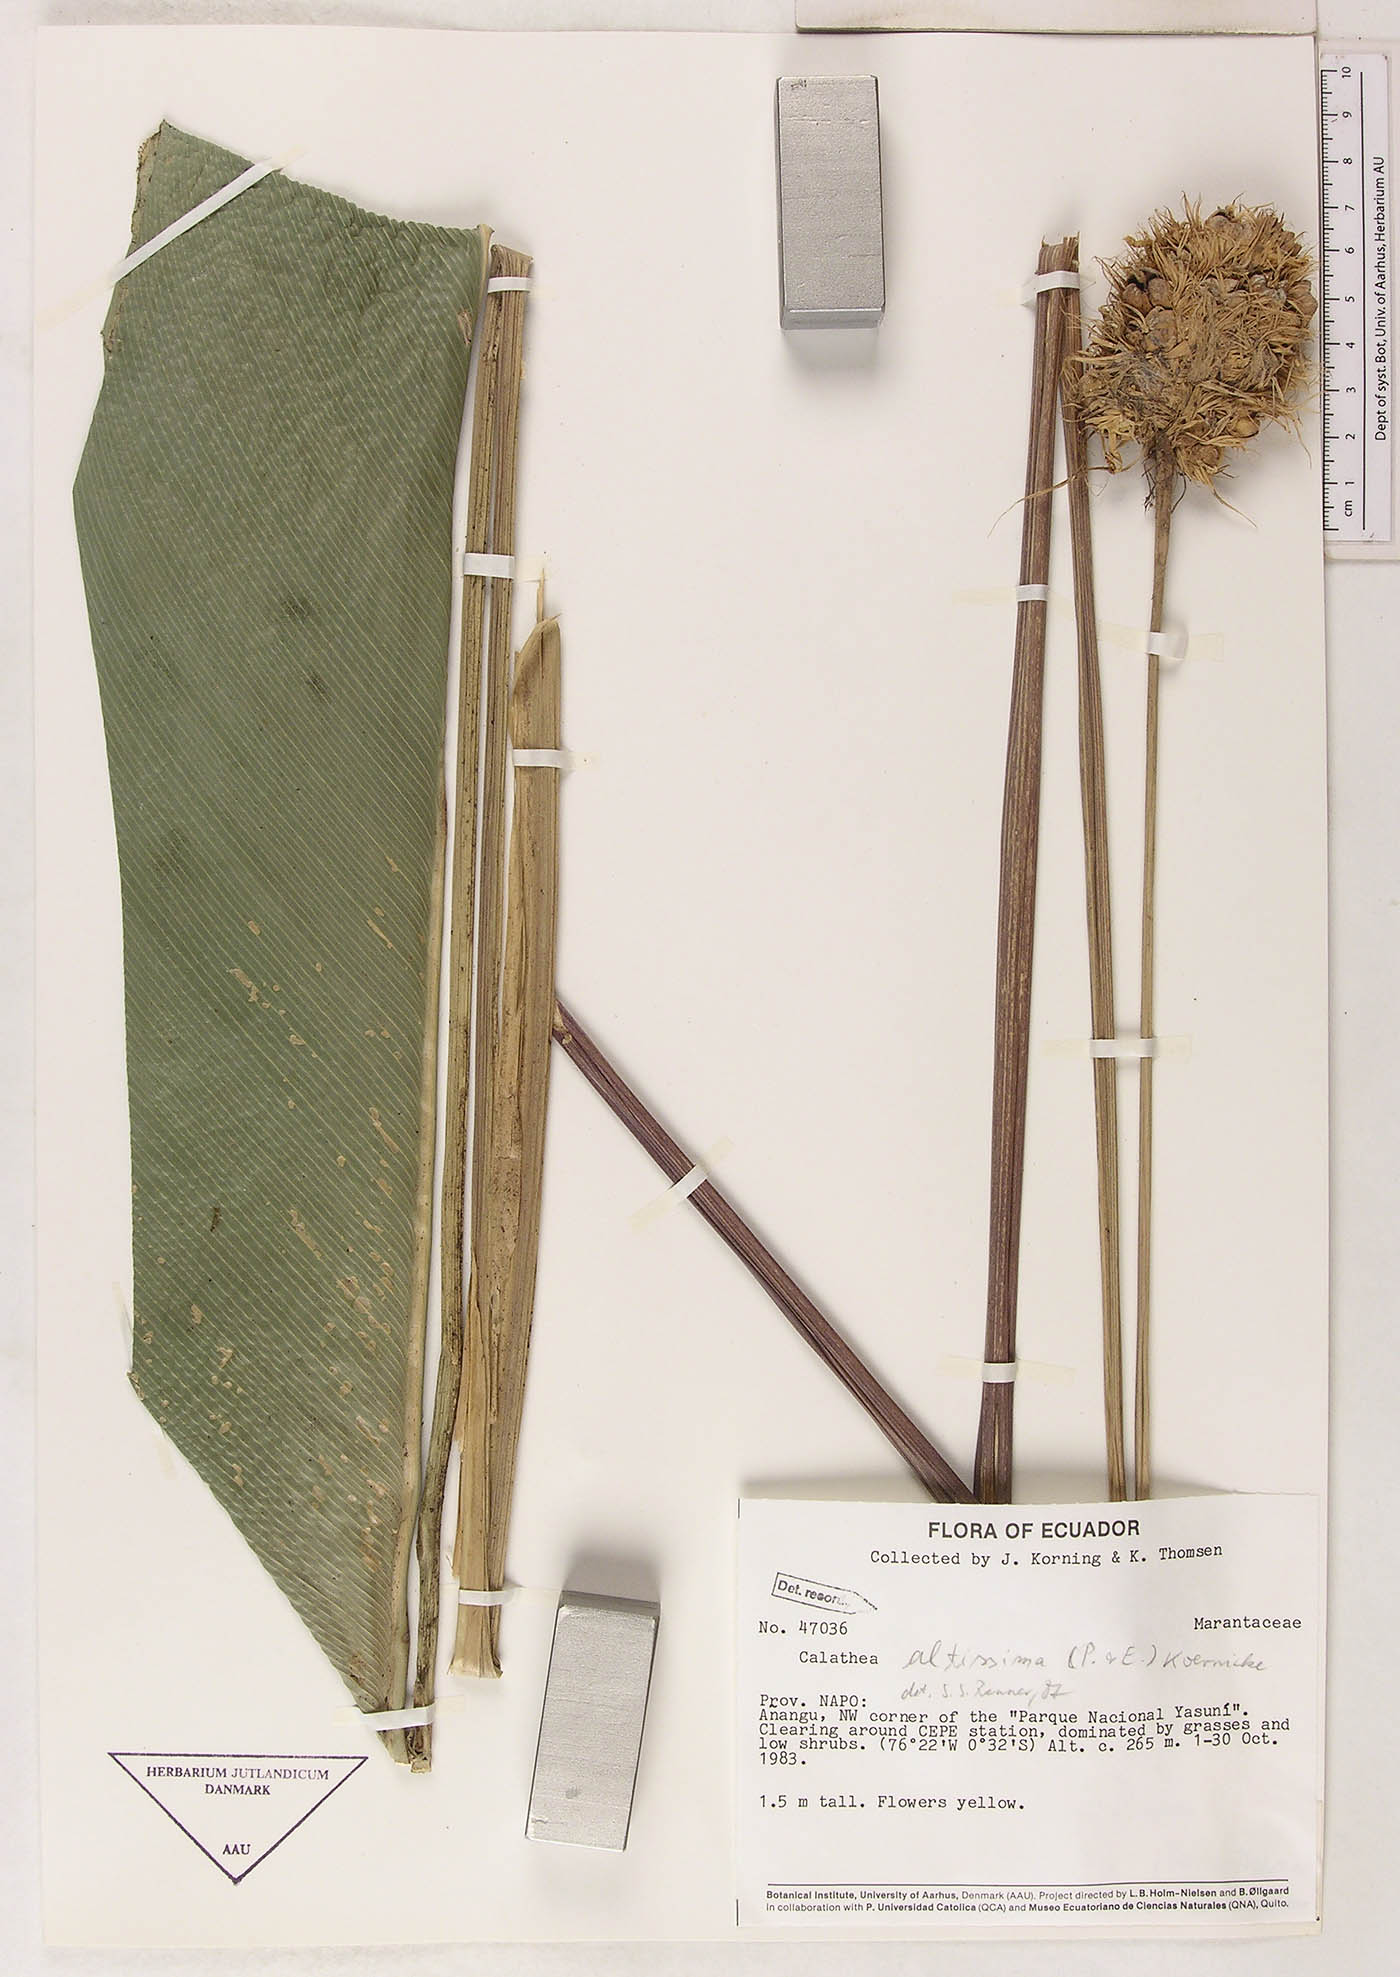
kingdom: Plantae
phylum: Tracheophyta
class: Liliopsida
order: Zingiberales
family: Marantaceae
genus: Goeppertia
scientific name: Goeppertia altissima
